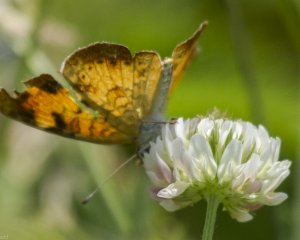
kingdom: Animalia
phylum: Arthropoda
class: Insecta
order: Lepidoptera
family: Nymphalidae
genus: Phyciodes
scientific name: Phyciodes tharos
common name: Northern Crescent
